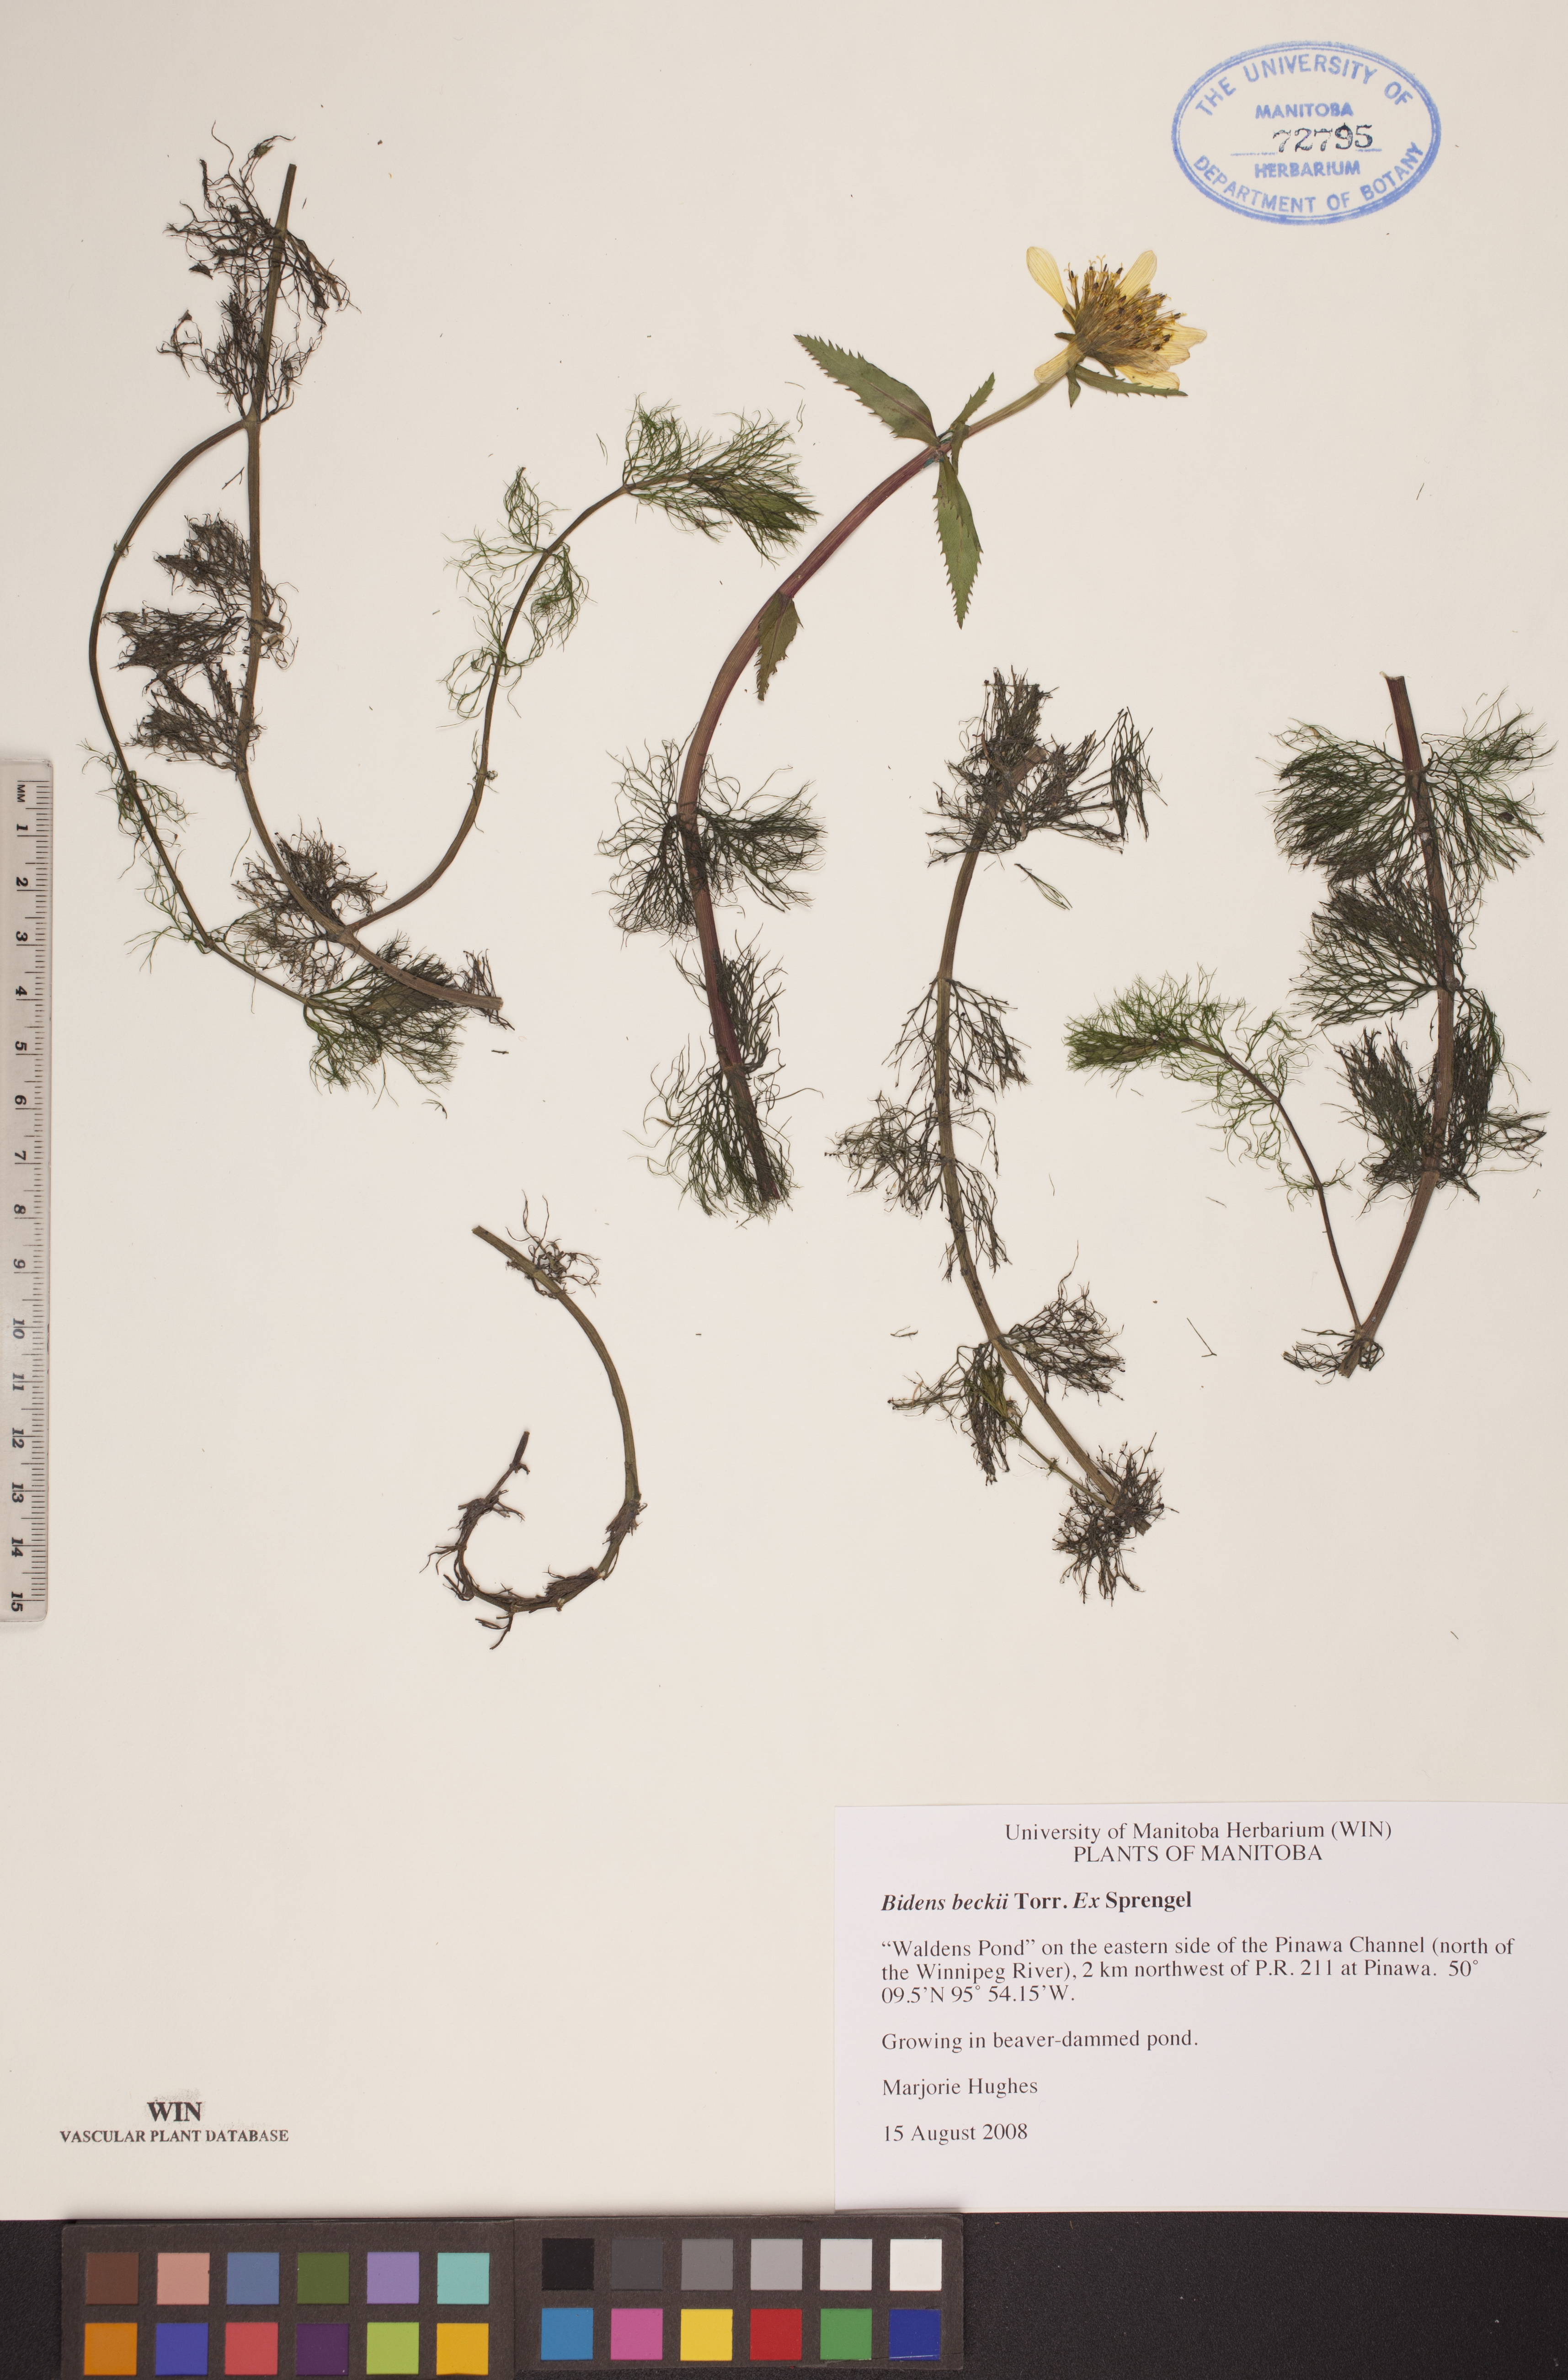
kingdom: Plantae
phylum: Tracheophyta
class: Magnoliopsida
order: Asterales
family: Asteraceae
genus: Bidens
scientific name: Bidens beckii
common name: Beck's beggarticks
